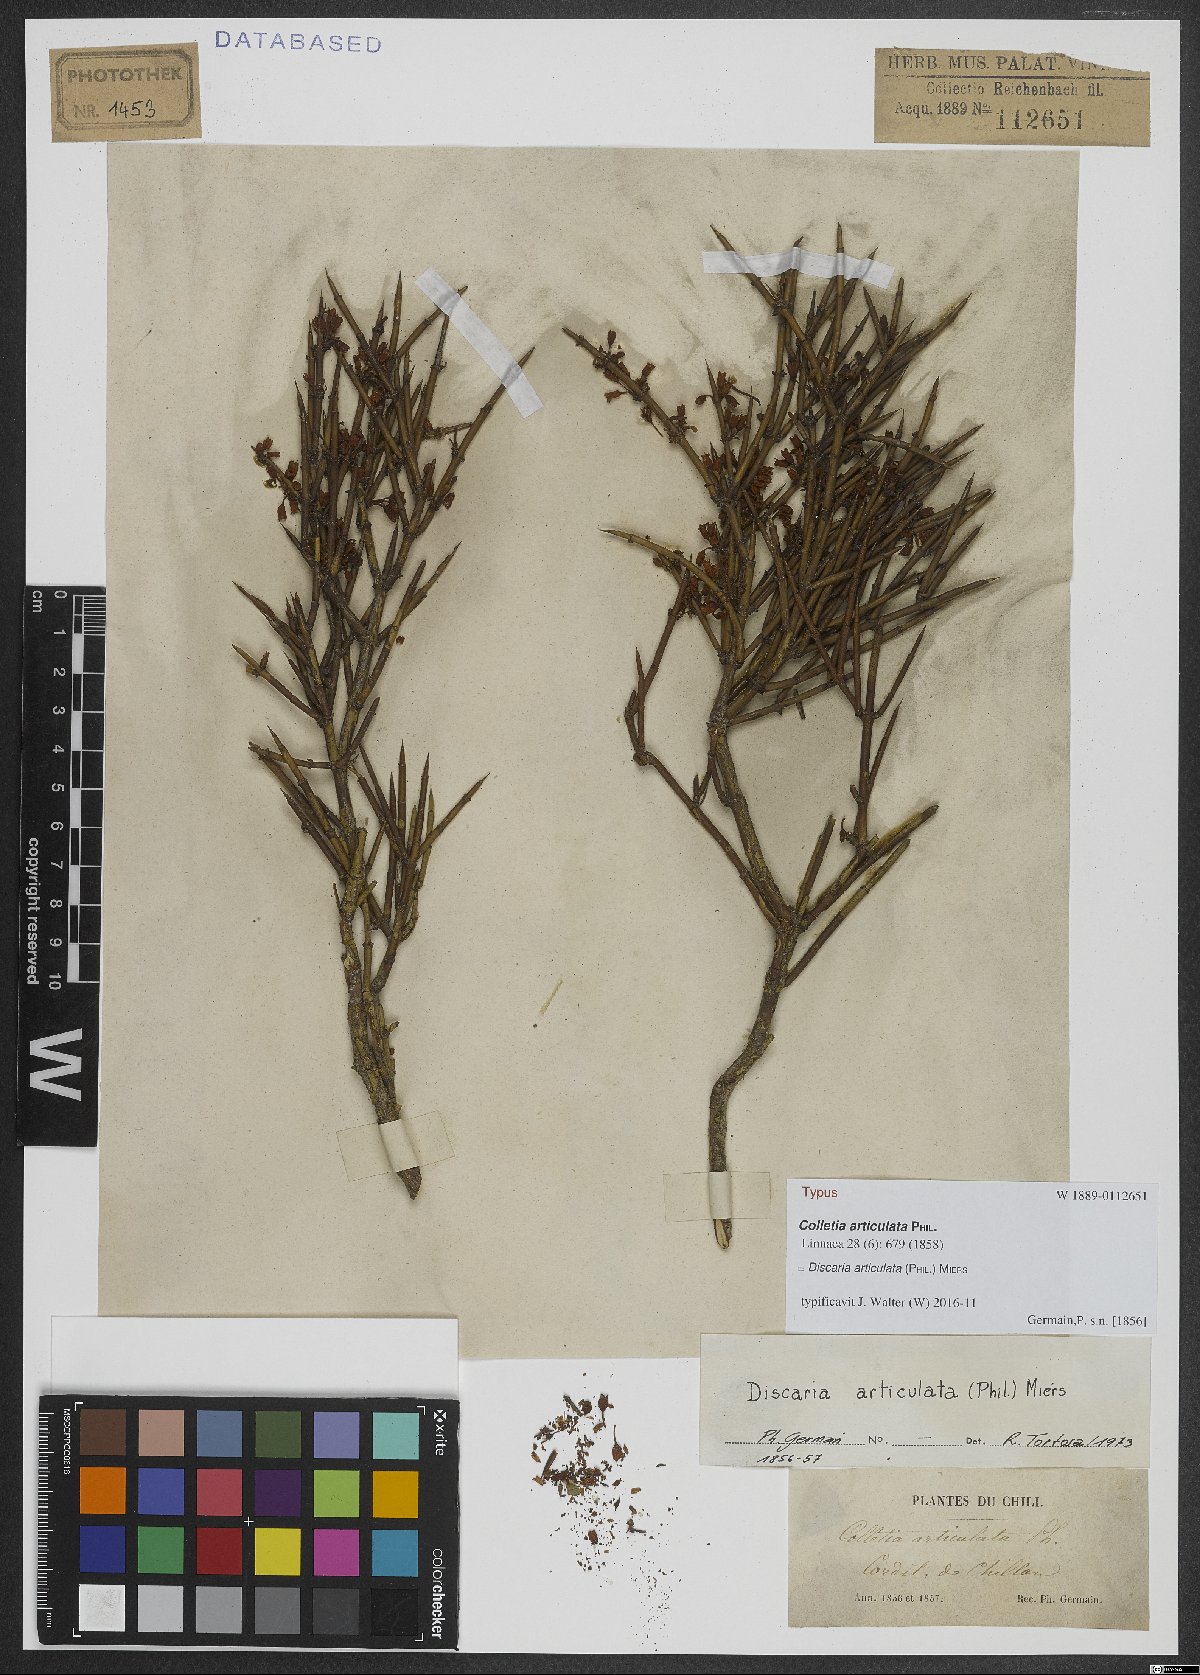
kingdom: Plantae
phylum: Tracheophyta
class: Magnoliopsida
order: Rosales
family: Rhamnaceae
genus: Discaria
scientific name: Discaria articulata
